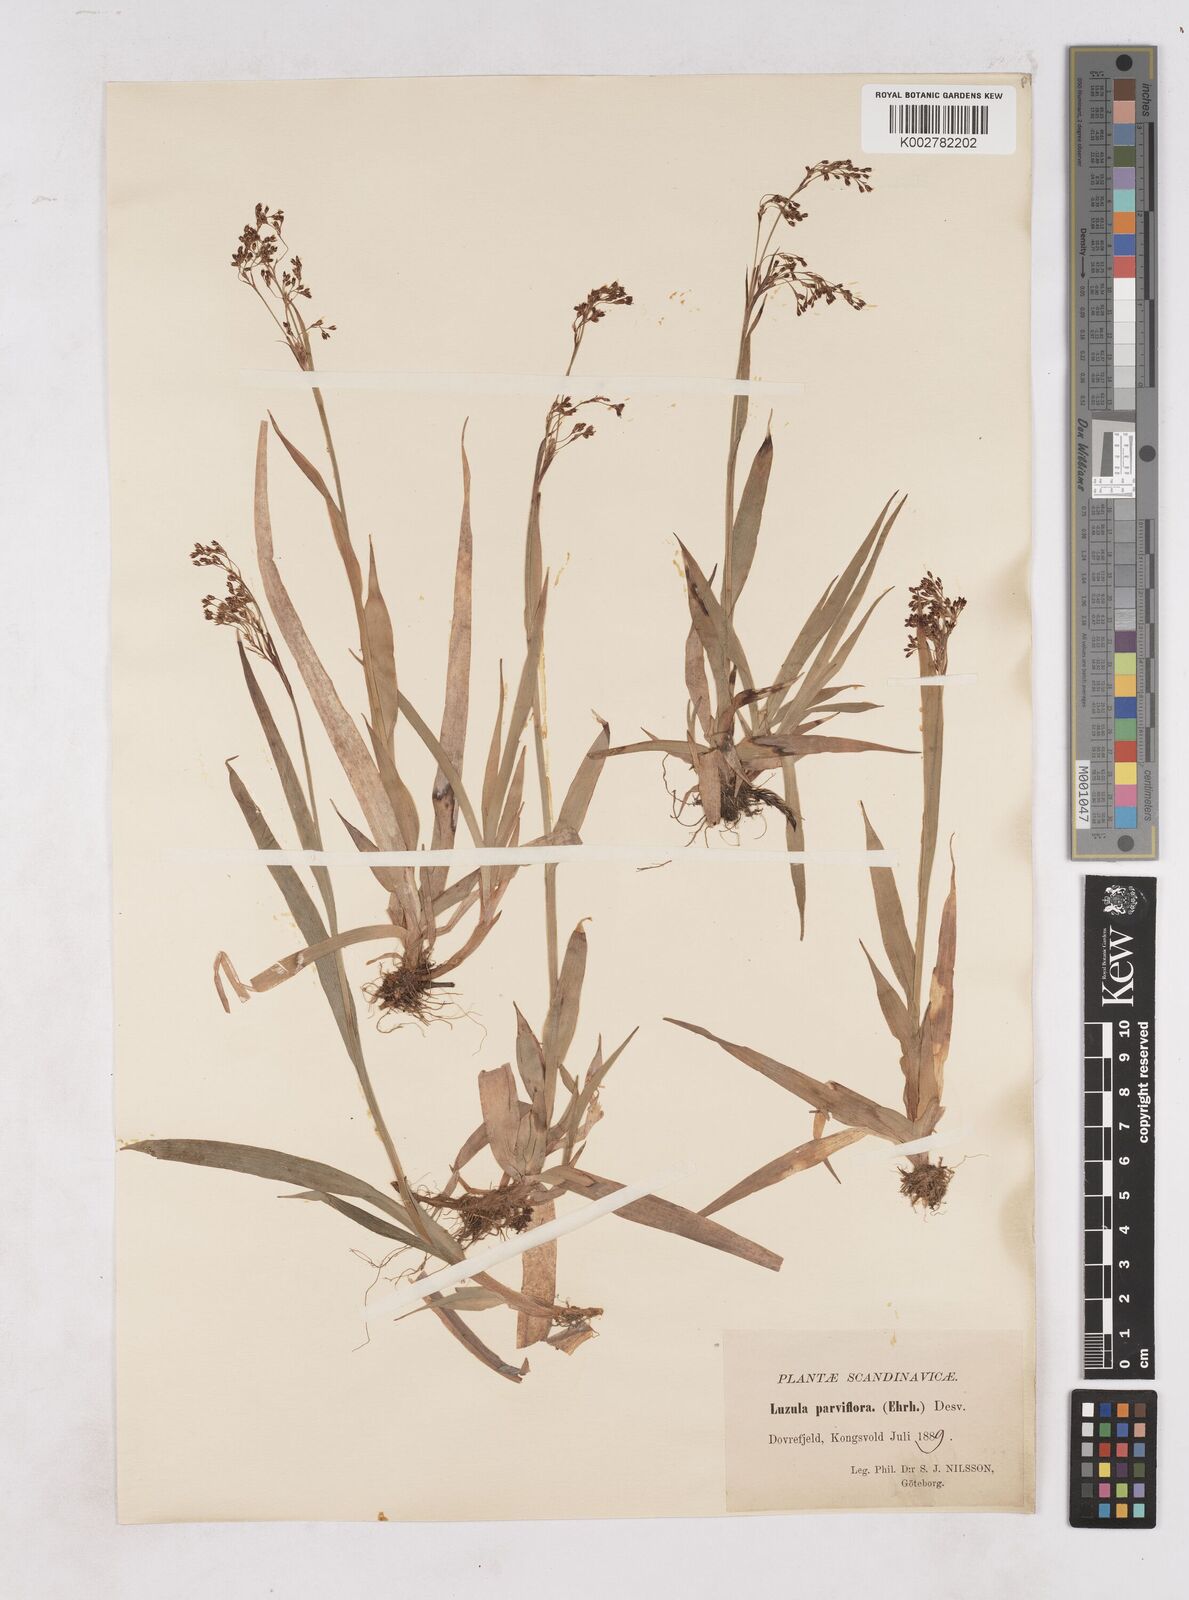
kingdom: Plantae
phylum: Tracheophyta
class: Liliopsida
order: Poales
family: Juncaceae
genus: Luzula
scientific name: Luzula parviflora
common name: Millet woodrush
